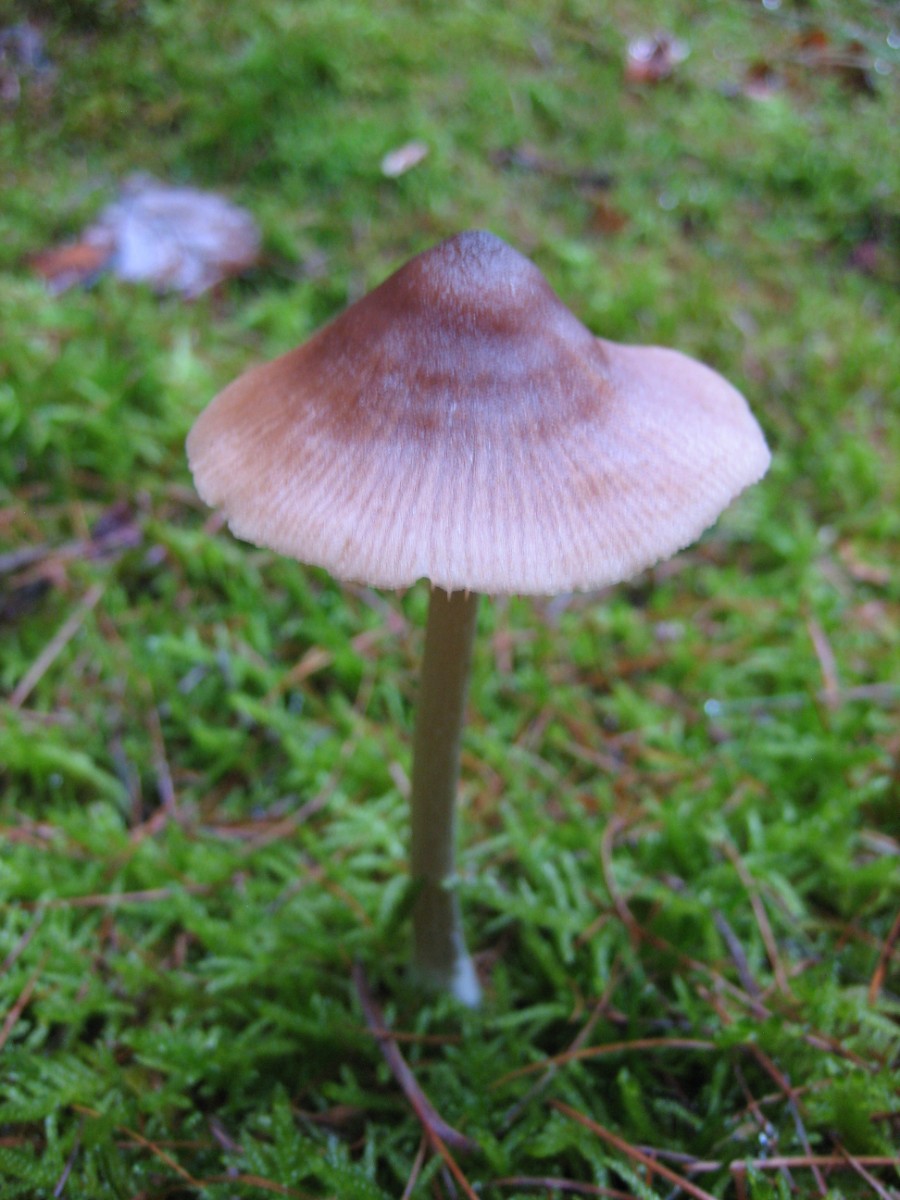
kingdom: Fungi
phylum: Basidiomycota
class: Agaricomycetes
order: Agaricales
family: Entolomataceae
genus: Entoloma
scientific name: Entoloma cetratum
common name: voks-rødblad
